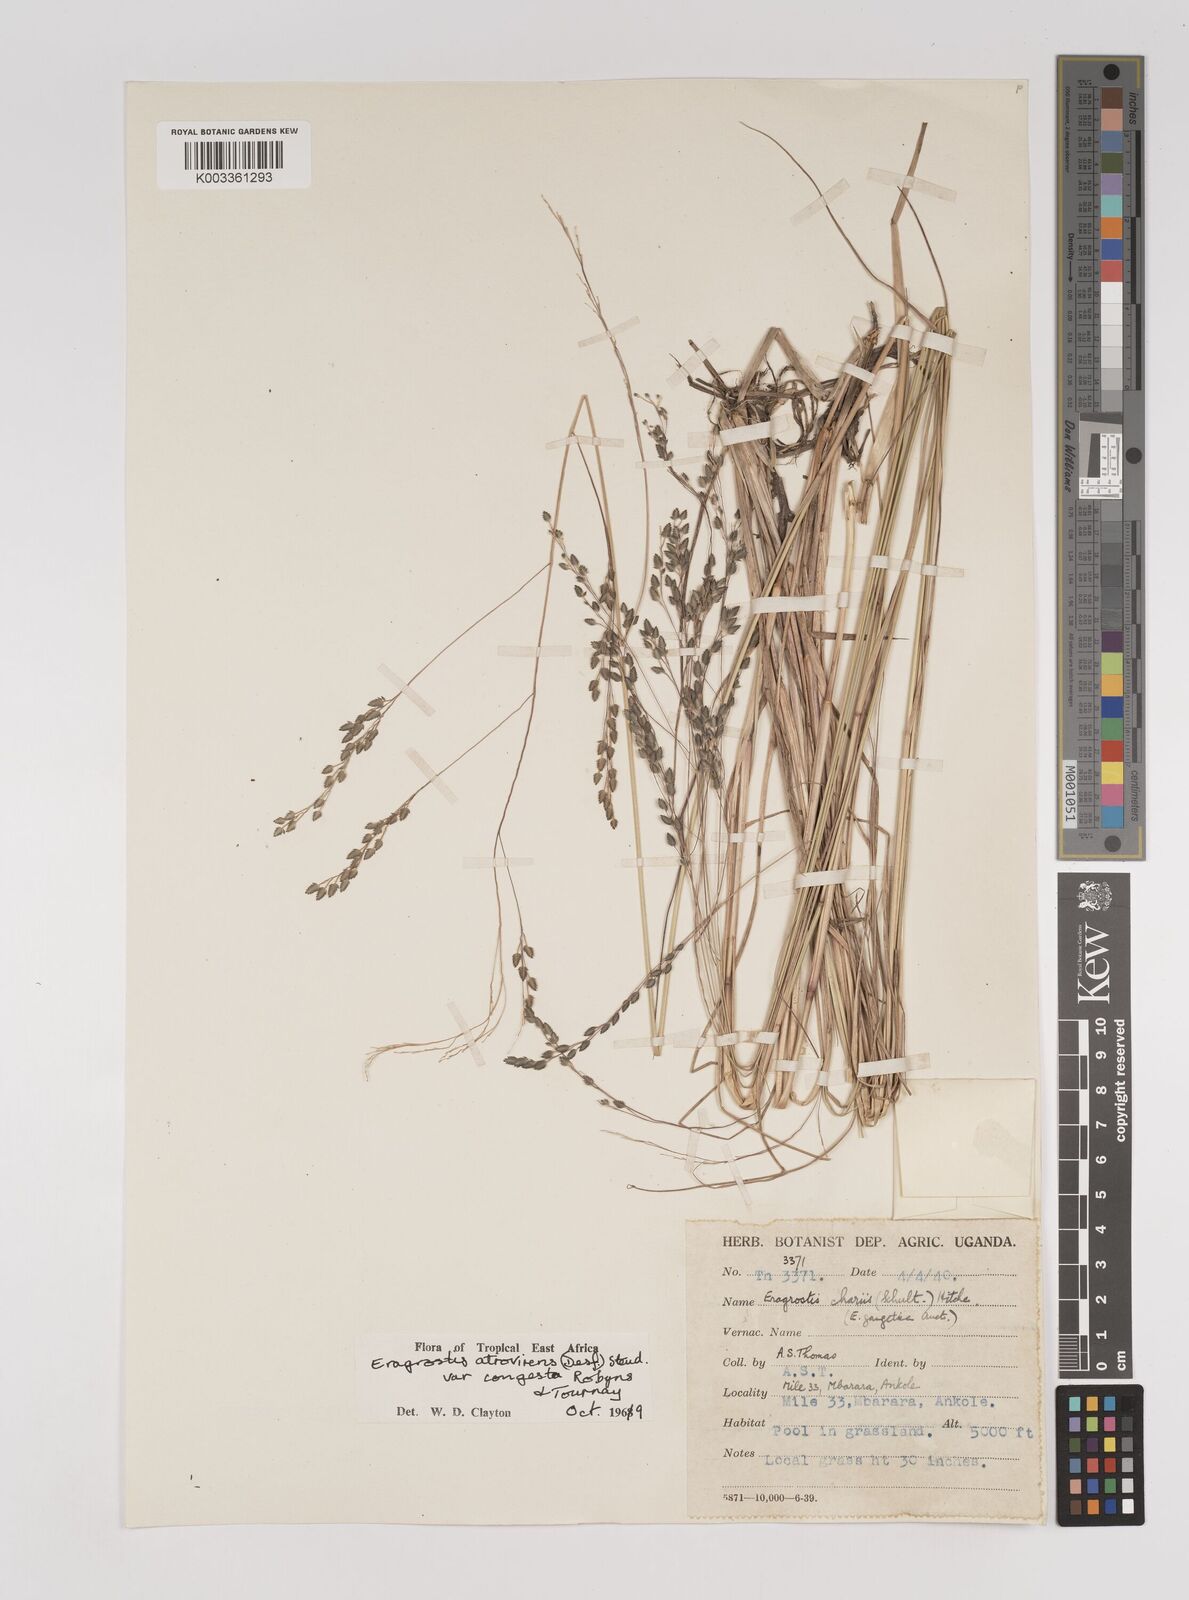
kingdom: Plantae
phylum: Tracheophyta
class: Liliopsida
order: Poales
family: Poaceae
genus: Eragrostis
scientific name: Eragrostis botryodes
